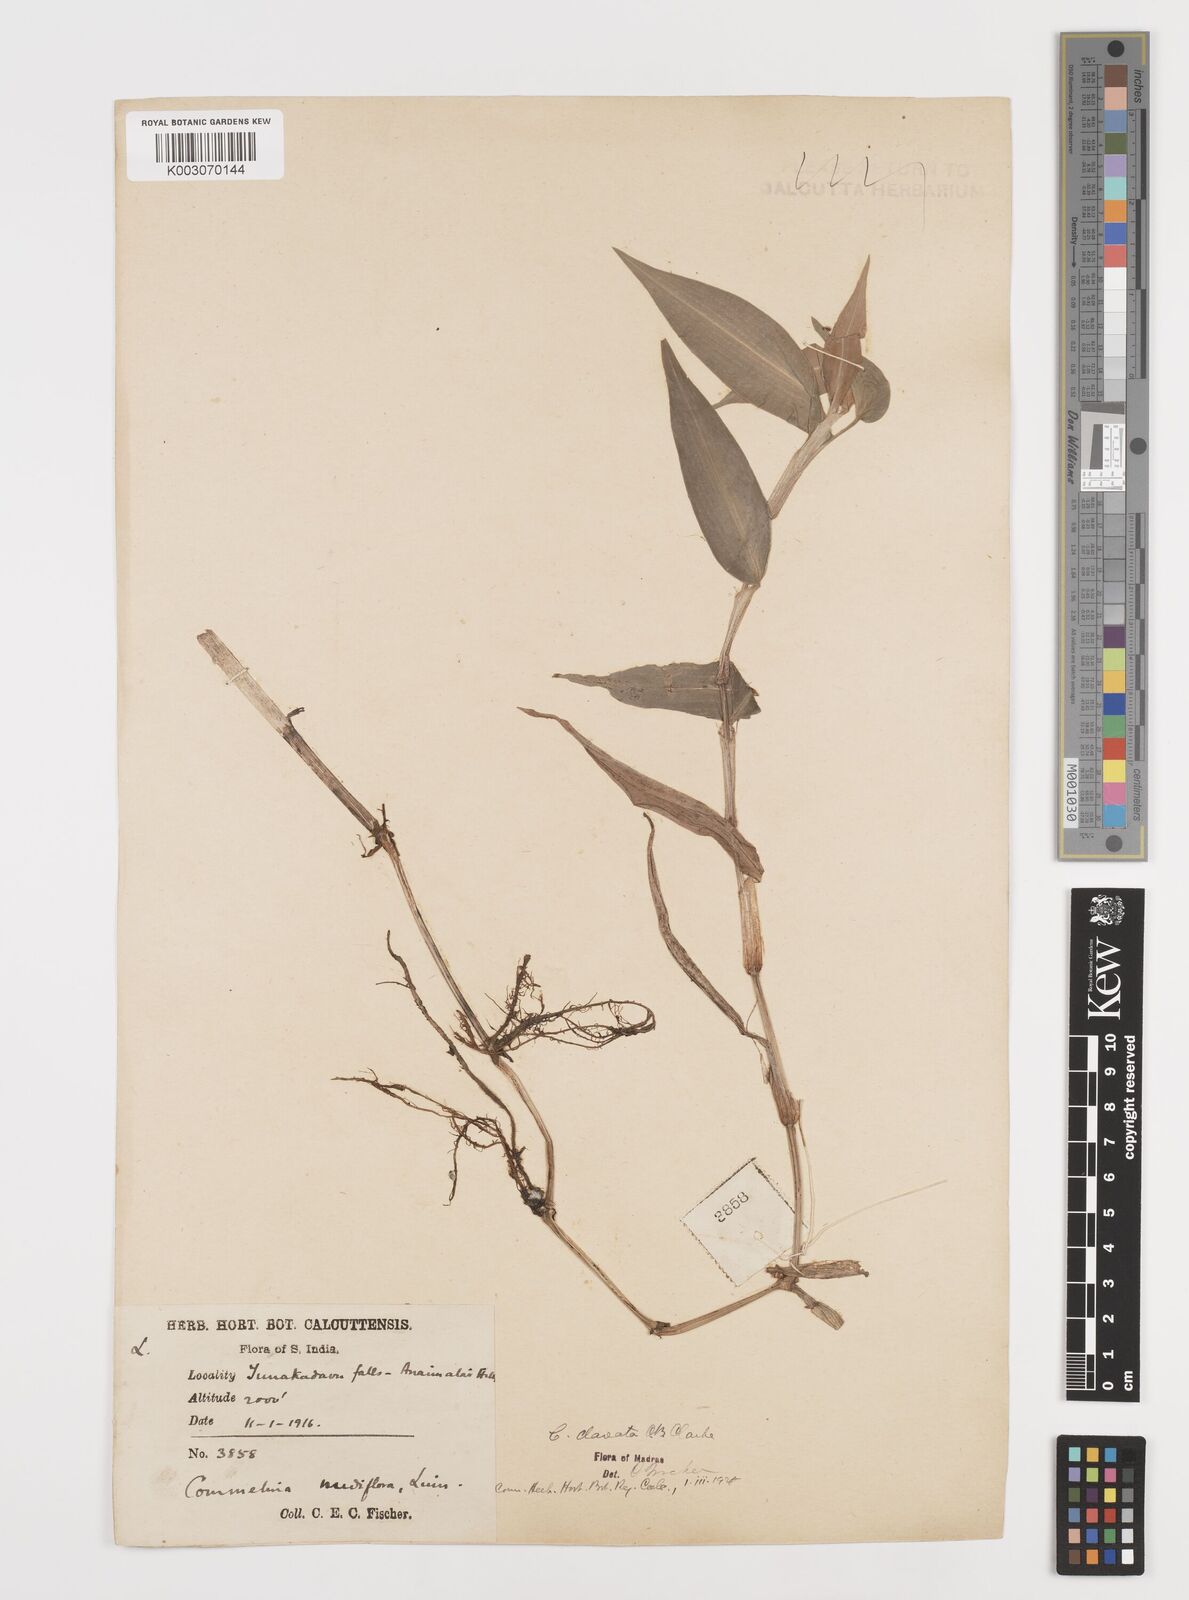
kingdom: Plantae
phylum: Tracheophyta
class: Liliopsida
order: Commelinales
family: Commelinaceae
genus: Commelina
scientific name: Commelina clavata
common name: Willow leaved dayflower
